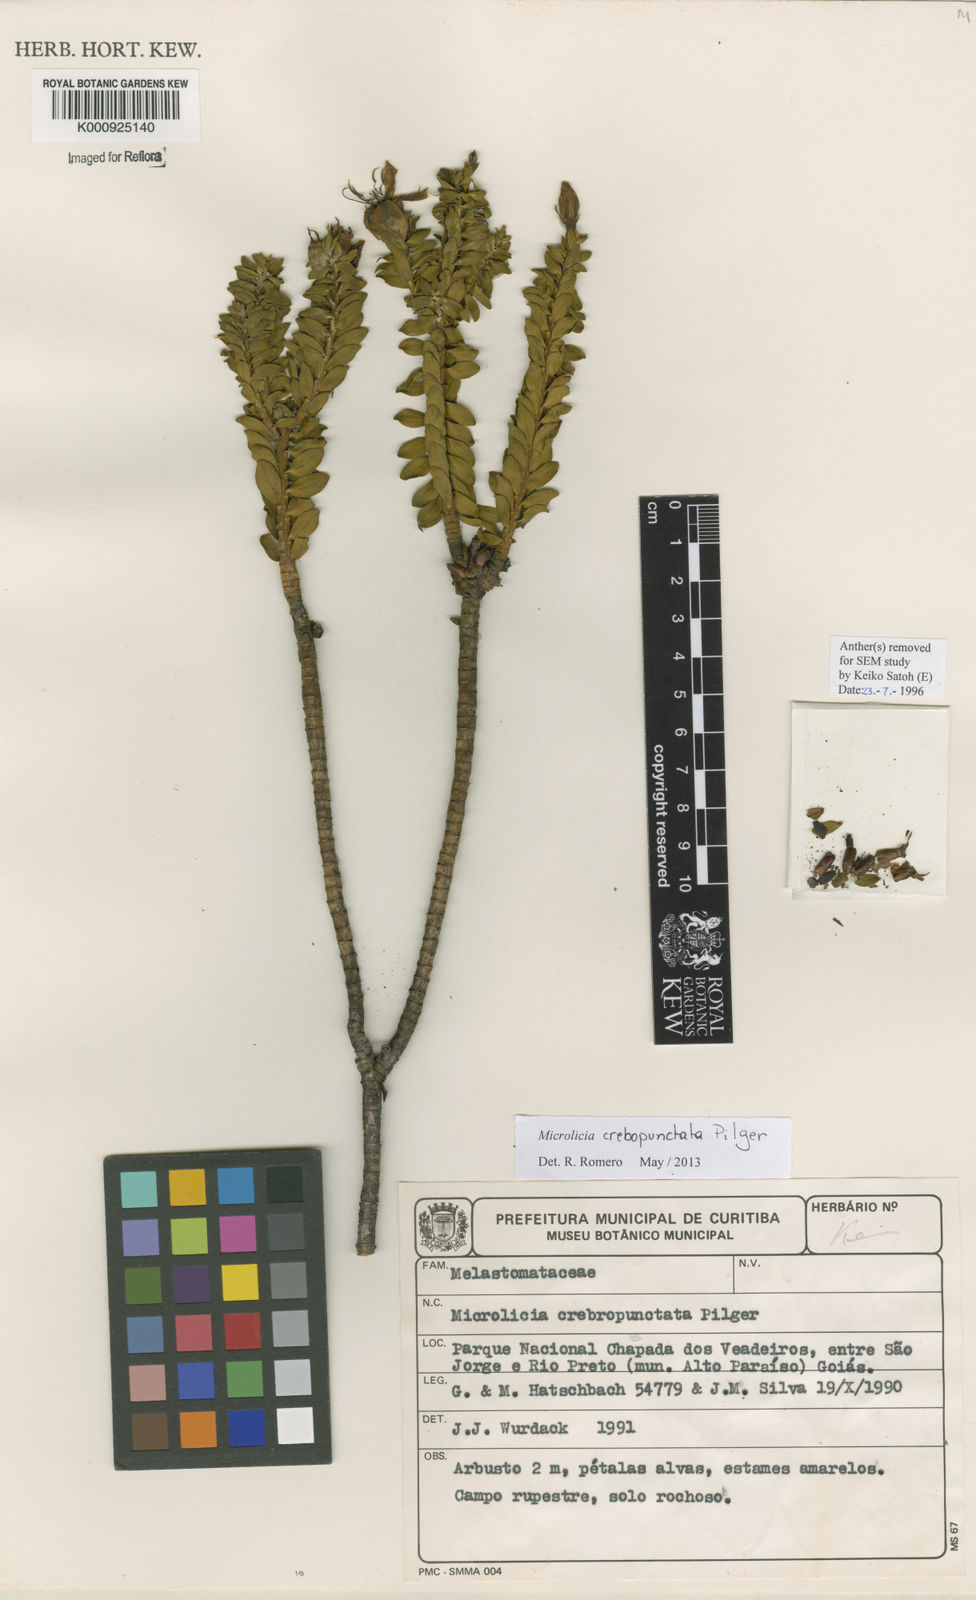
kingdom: Plantae
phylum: Tracheophyta
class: Magnoliopsida
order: Myrtales
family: Melastomataceae
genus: Microlicia
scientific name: Microlicia crebropunctata
